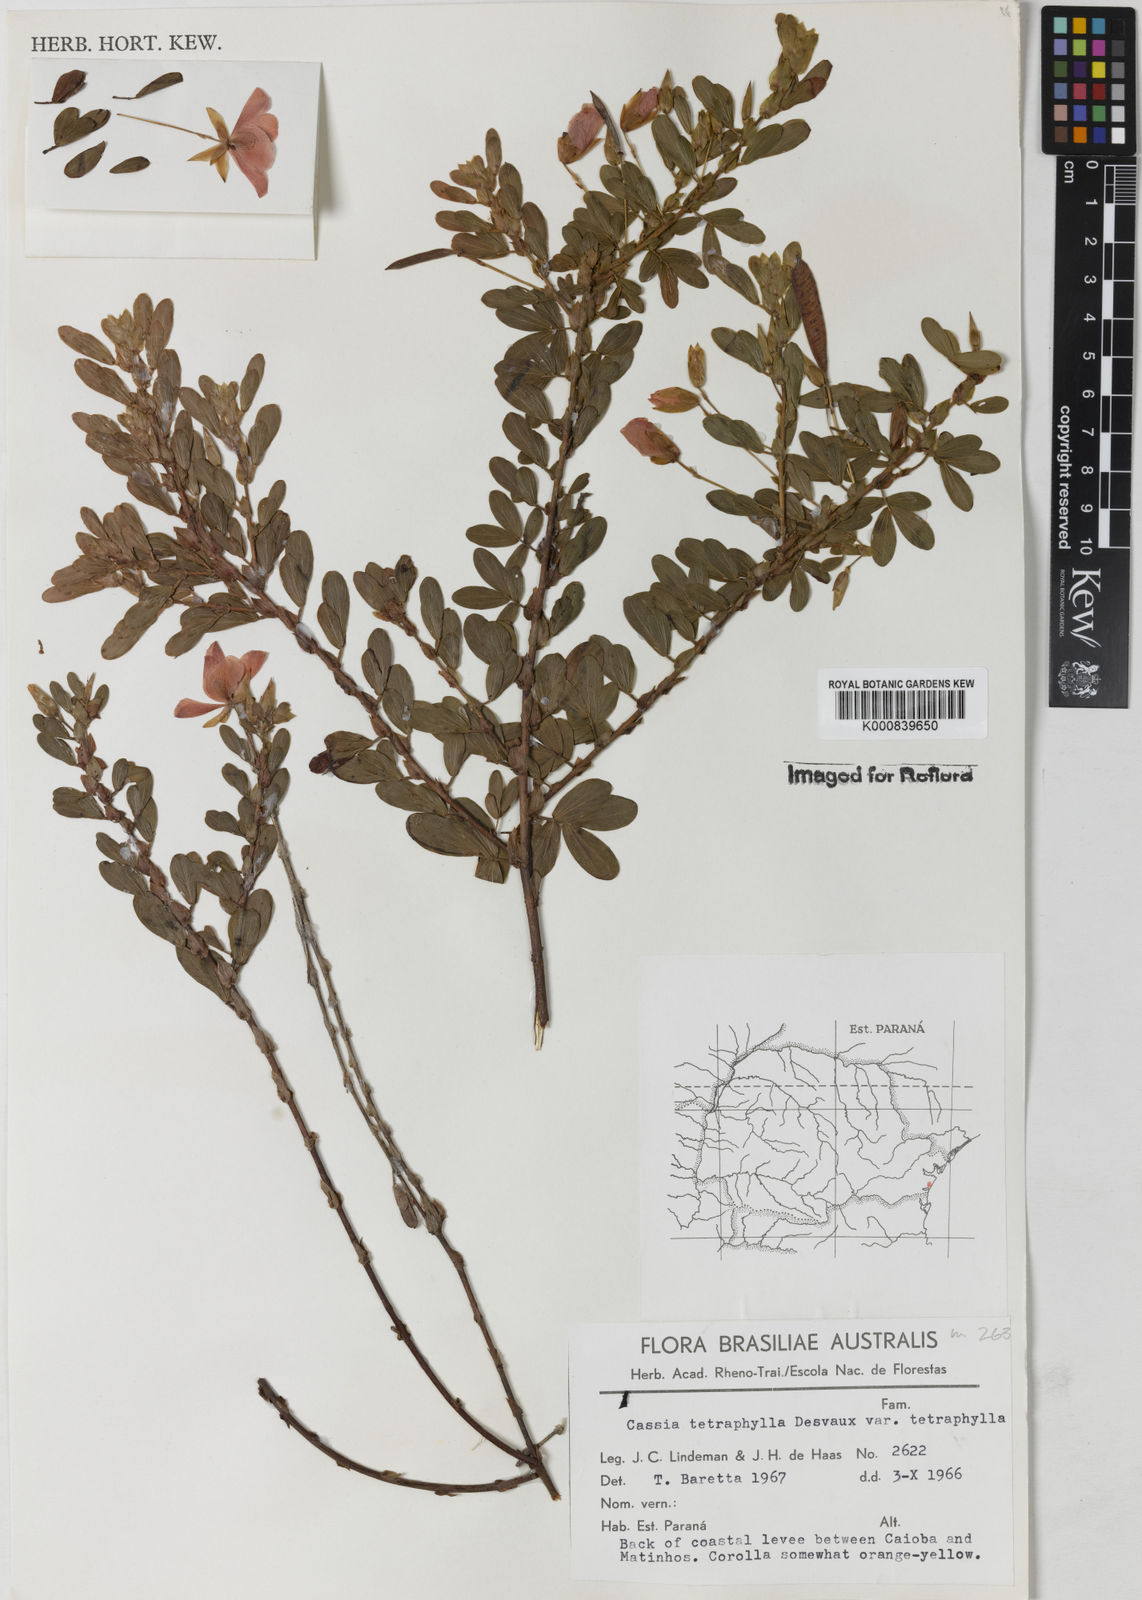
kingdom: Plantae
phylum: Tracheophyta
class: Magnoliopsida
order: Fabales
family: Fabaceae
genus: Chamaecrista
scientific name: Chamaecrista desvauxii
